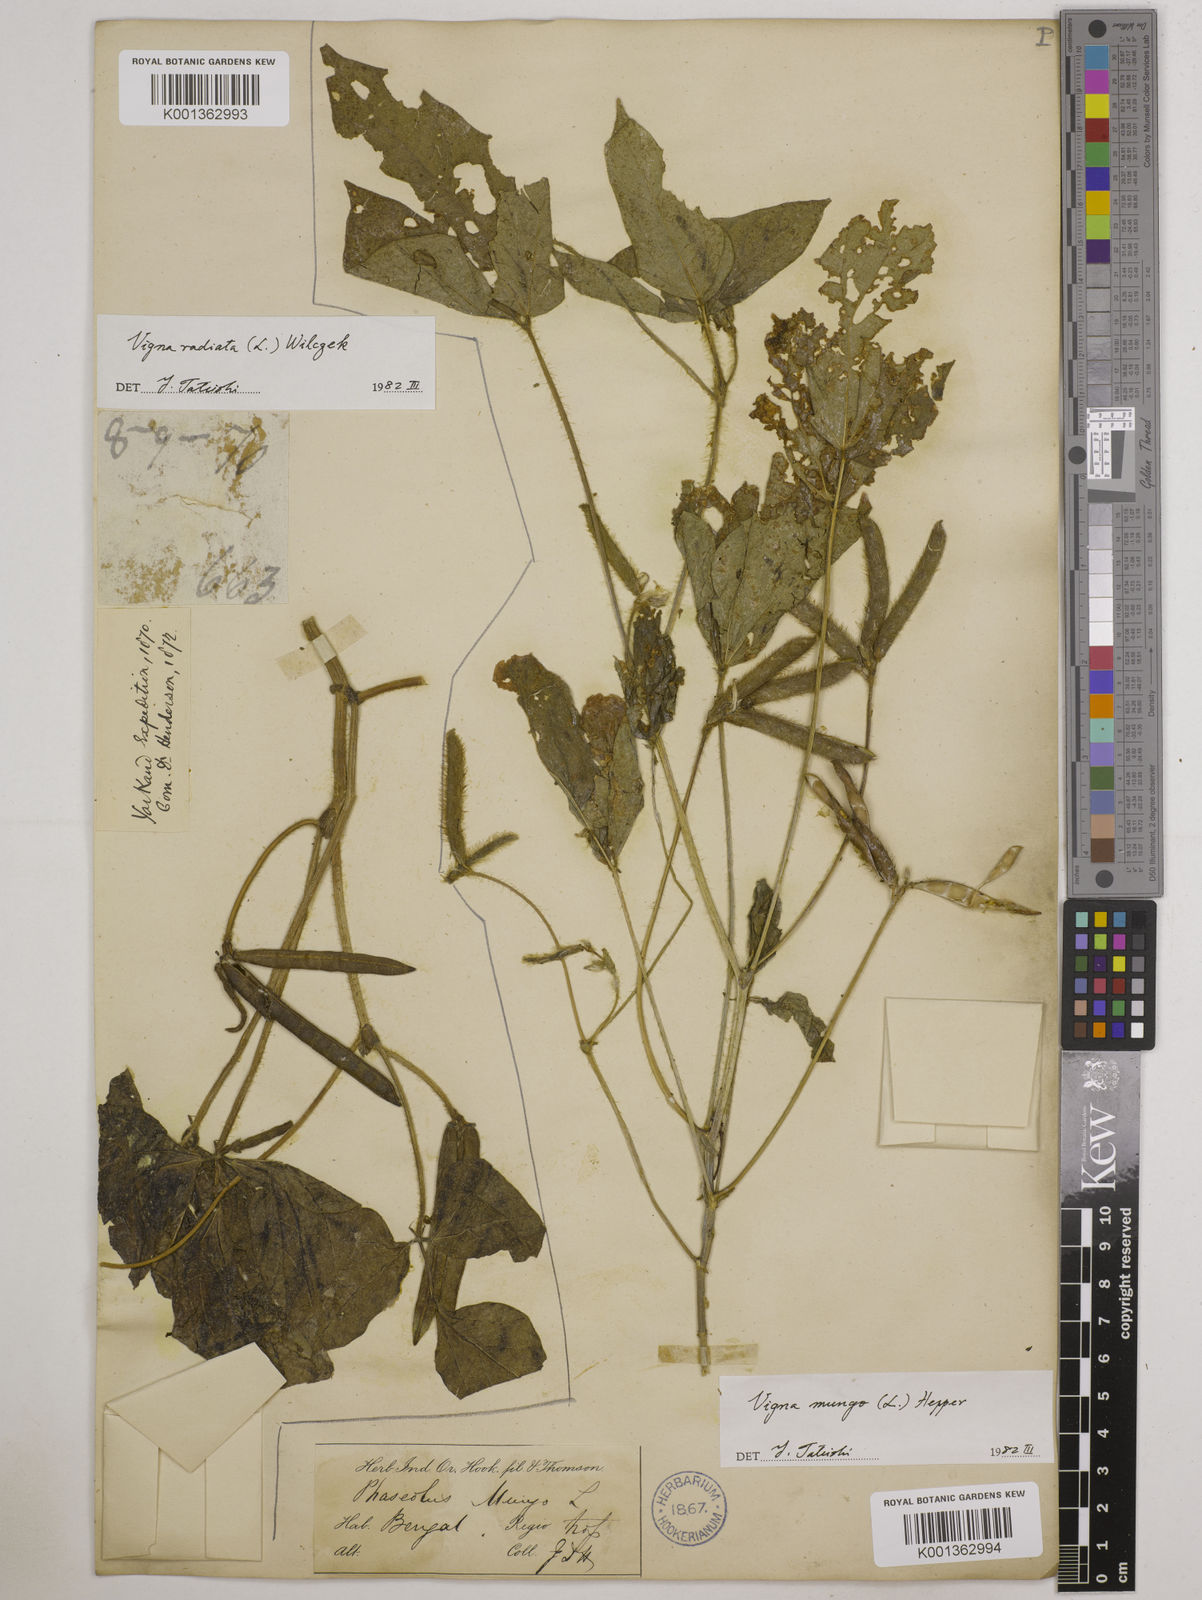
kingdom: Plantae
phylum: Tracheophyta
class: Magnoliopsida
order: Fabales
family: Fabaceae
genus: Vigna
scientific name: Vigna mungo
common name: Black gram
